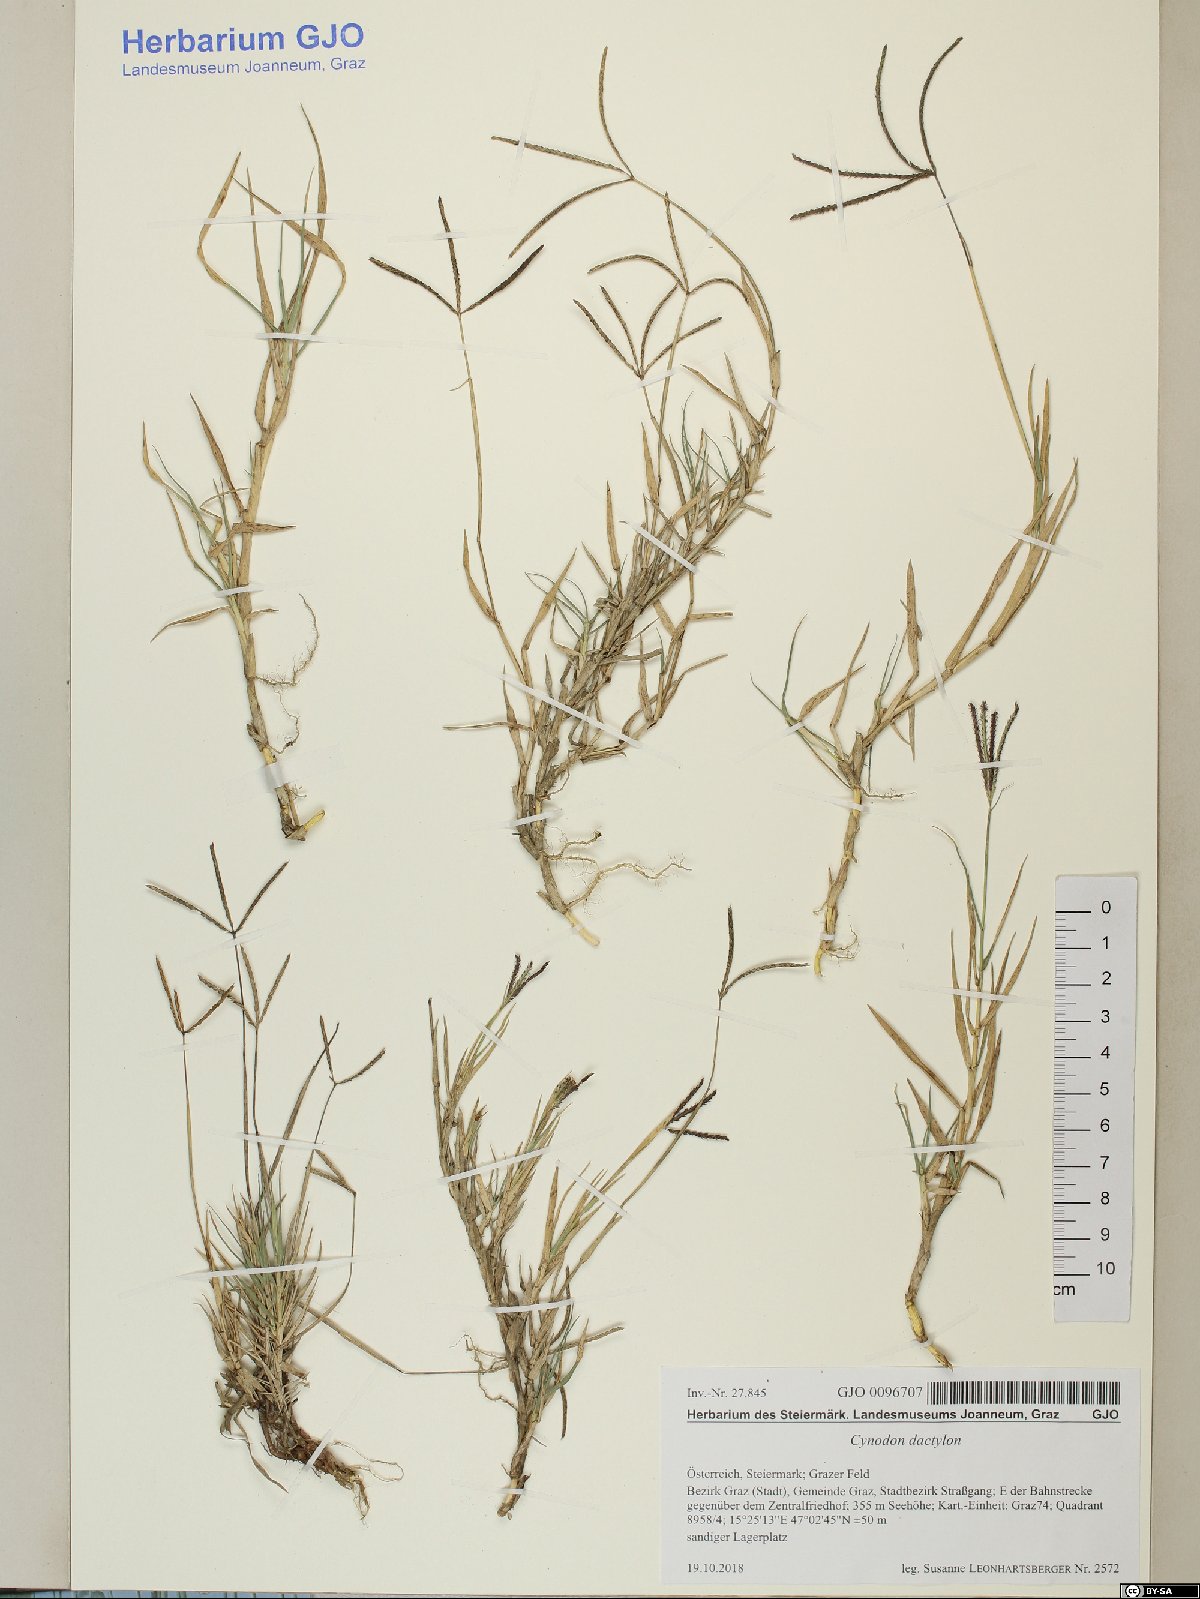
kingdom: Plantae
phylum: Tracheophyta
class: Liliopsida
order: Poales
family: Poaceae
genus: Cynodon
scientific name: Cynodon dactylon
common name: Bermuda grass
